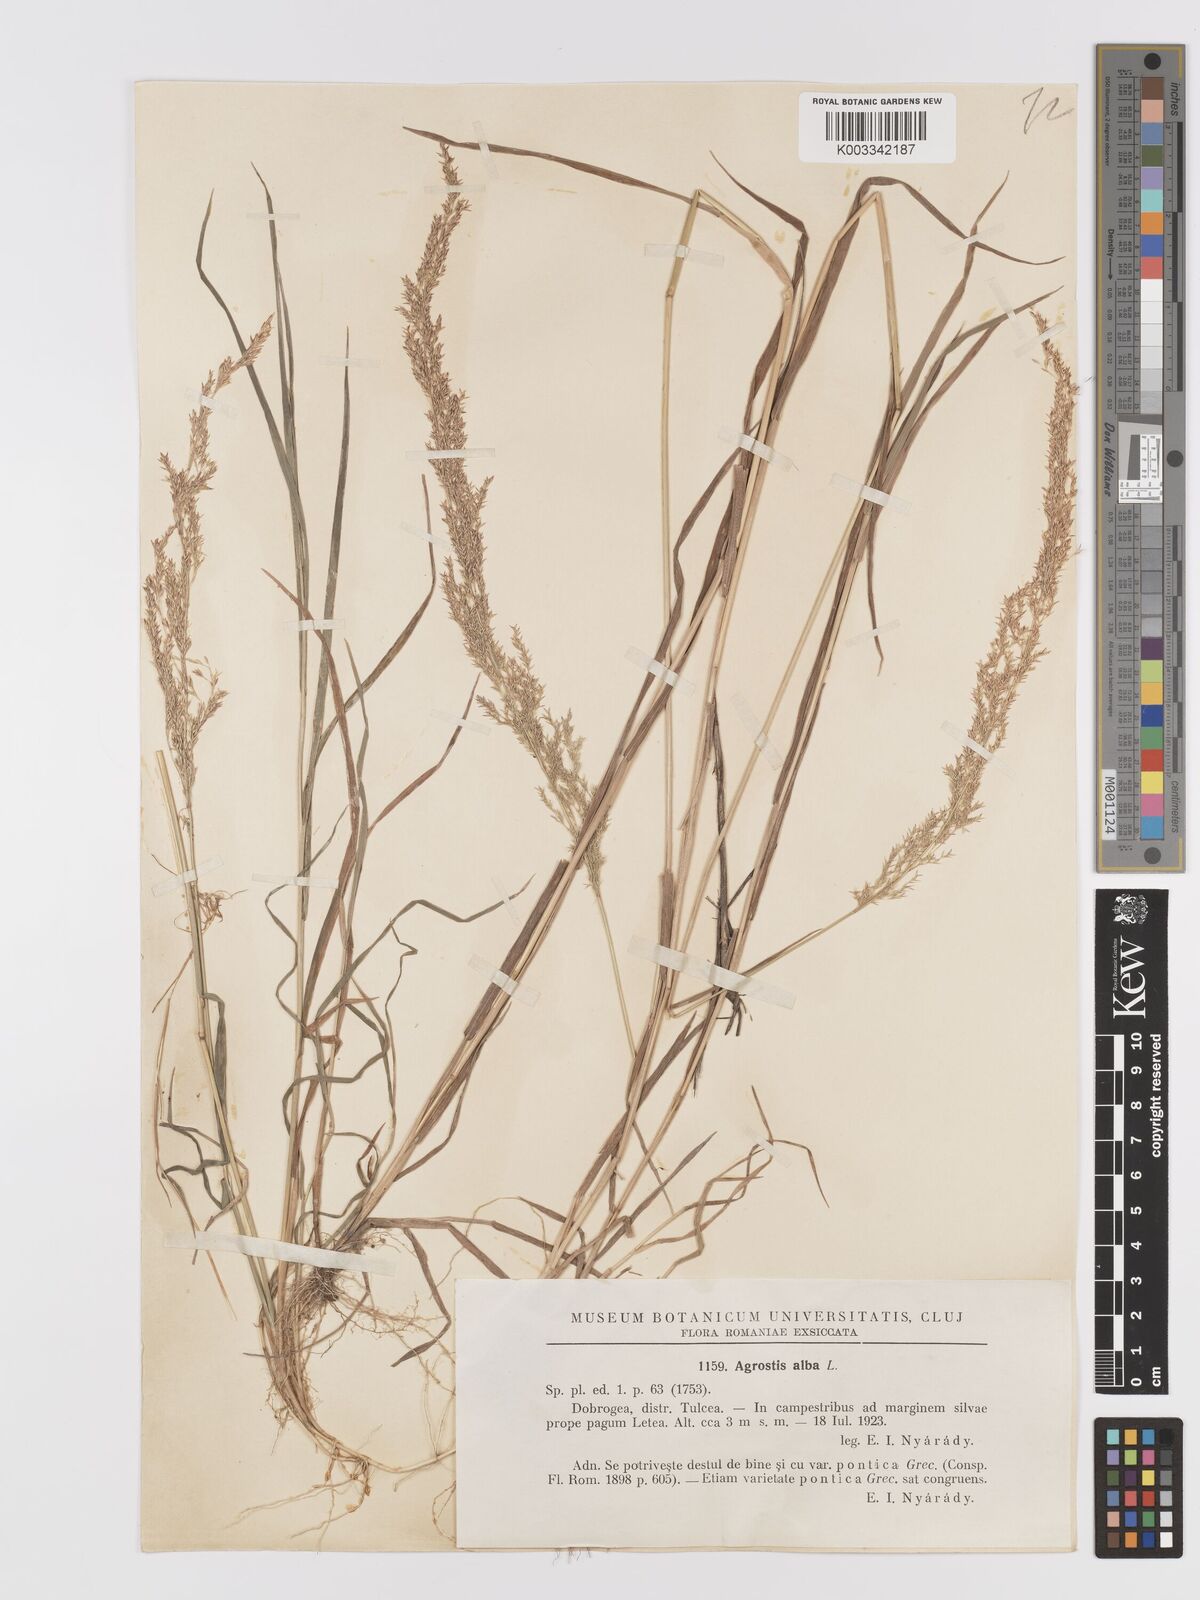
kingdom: Plantae
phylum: Tracheophyta
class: Liliopsida
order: Poales
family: Poaceae
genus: Agrostis
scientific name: Agrostis stolonifera
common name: Creeping bentgrass
